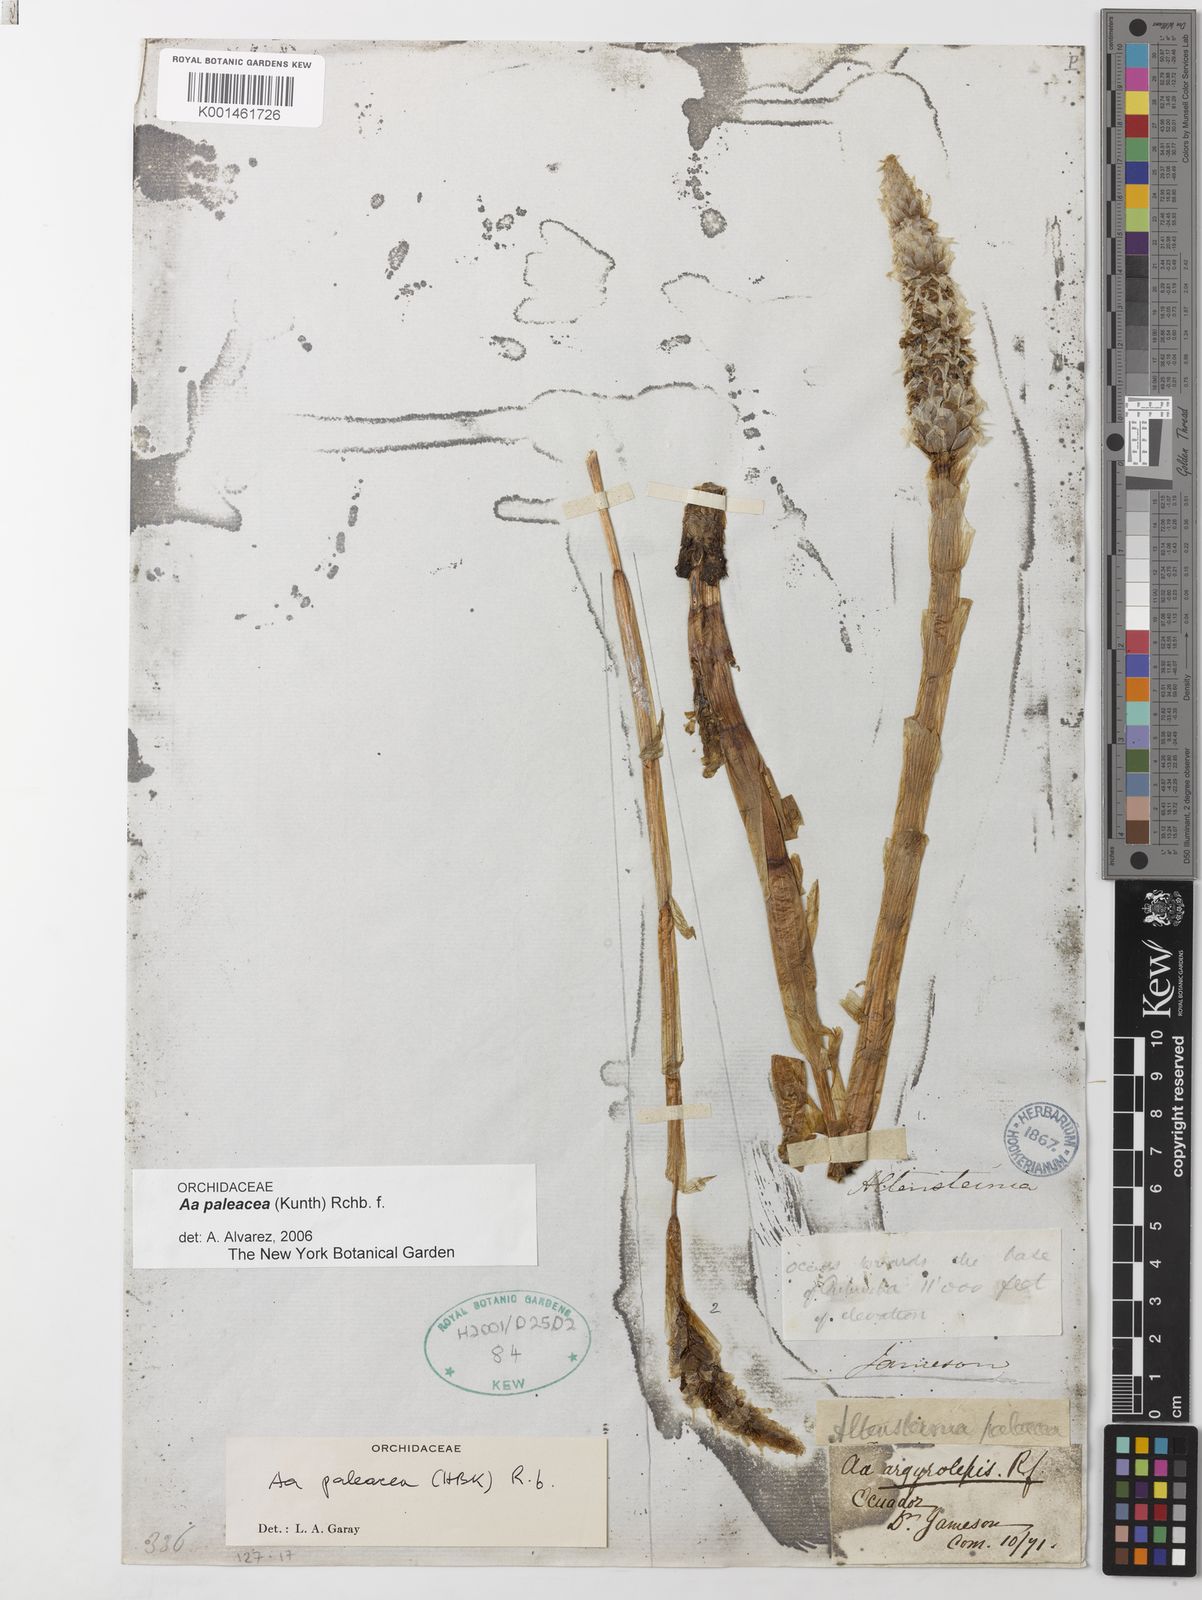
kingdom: Plantae
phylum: Tracheophyta
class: Liliopsida
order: Asparagales
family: Orchidaceae
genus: Aa
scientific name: Aa paleacea
